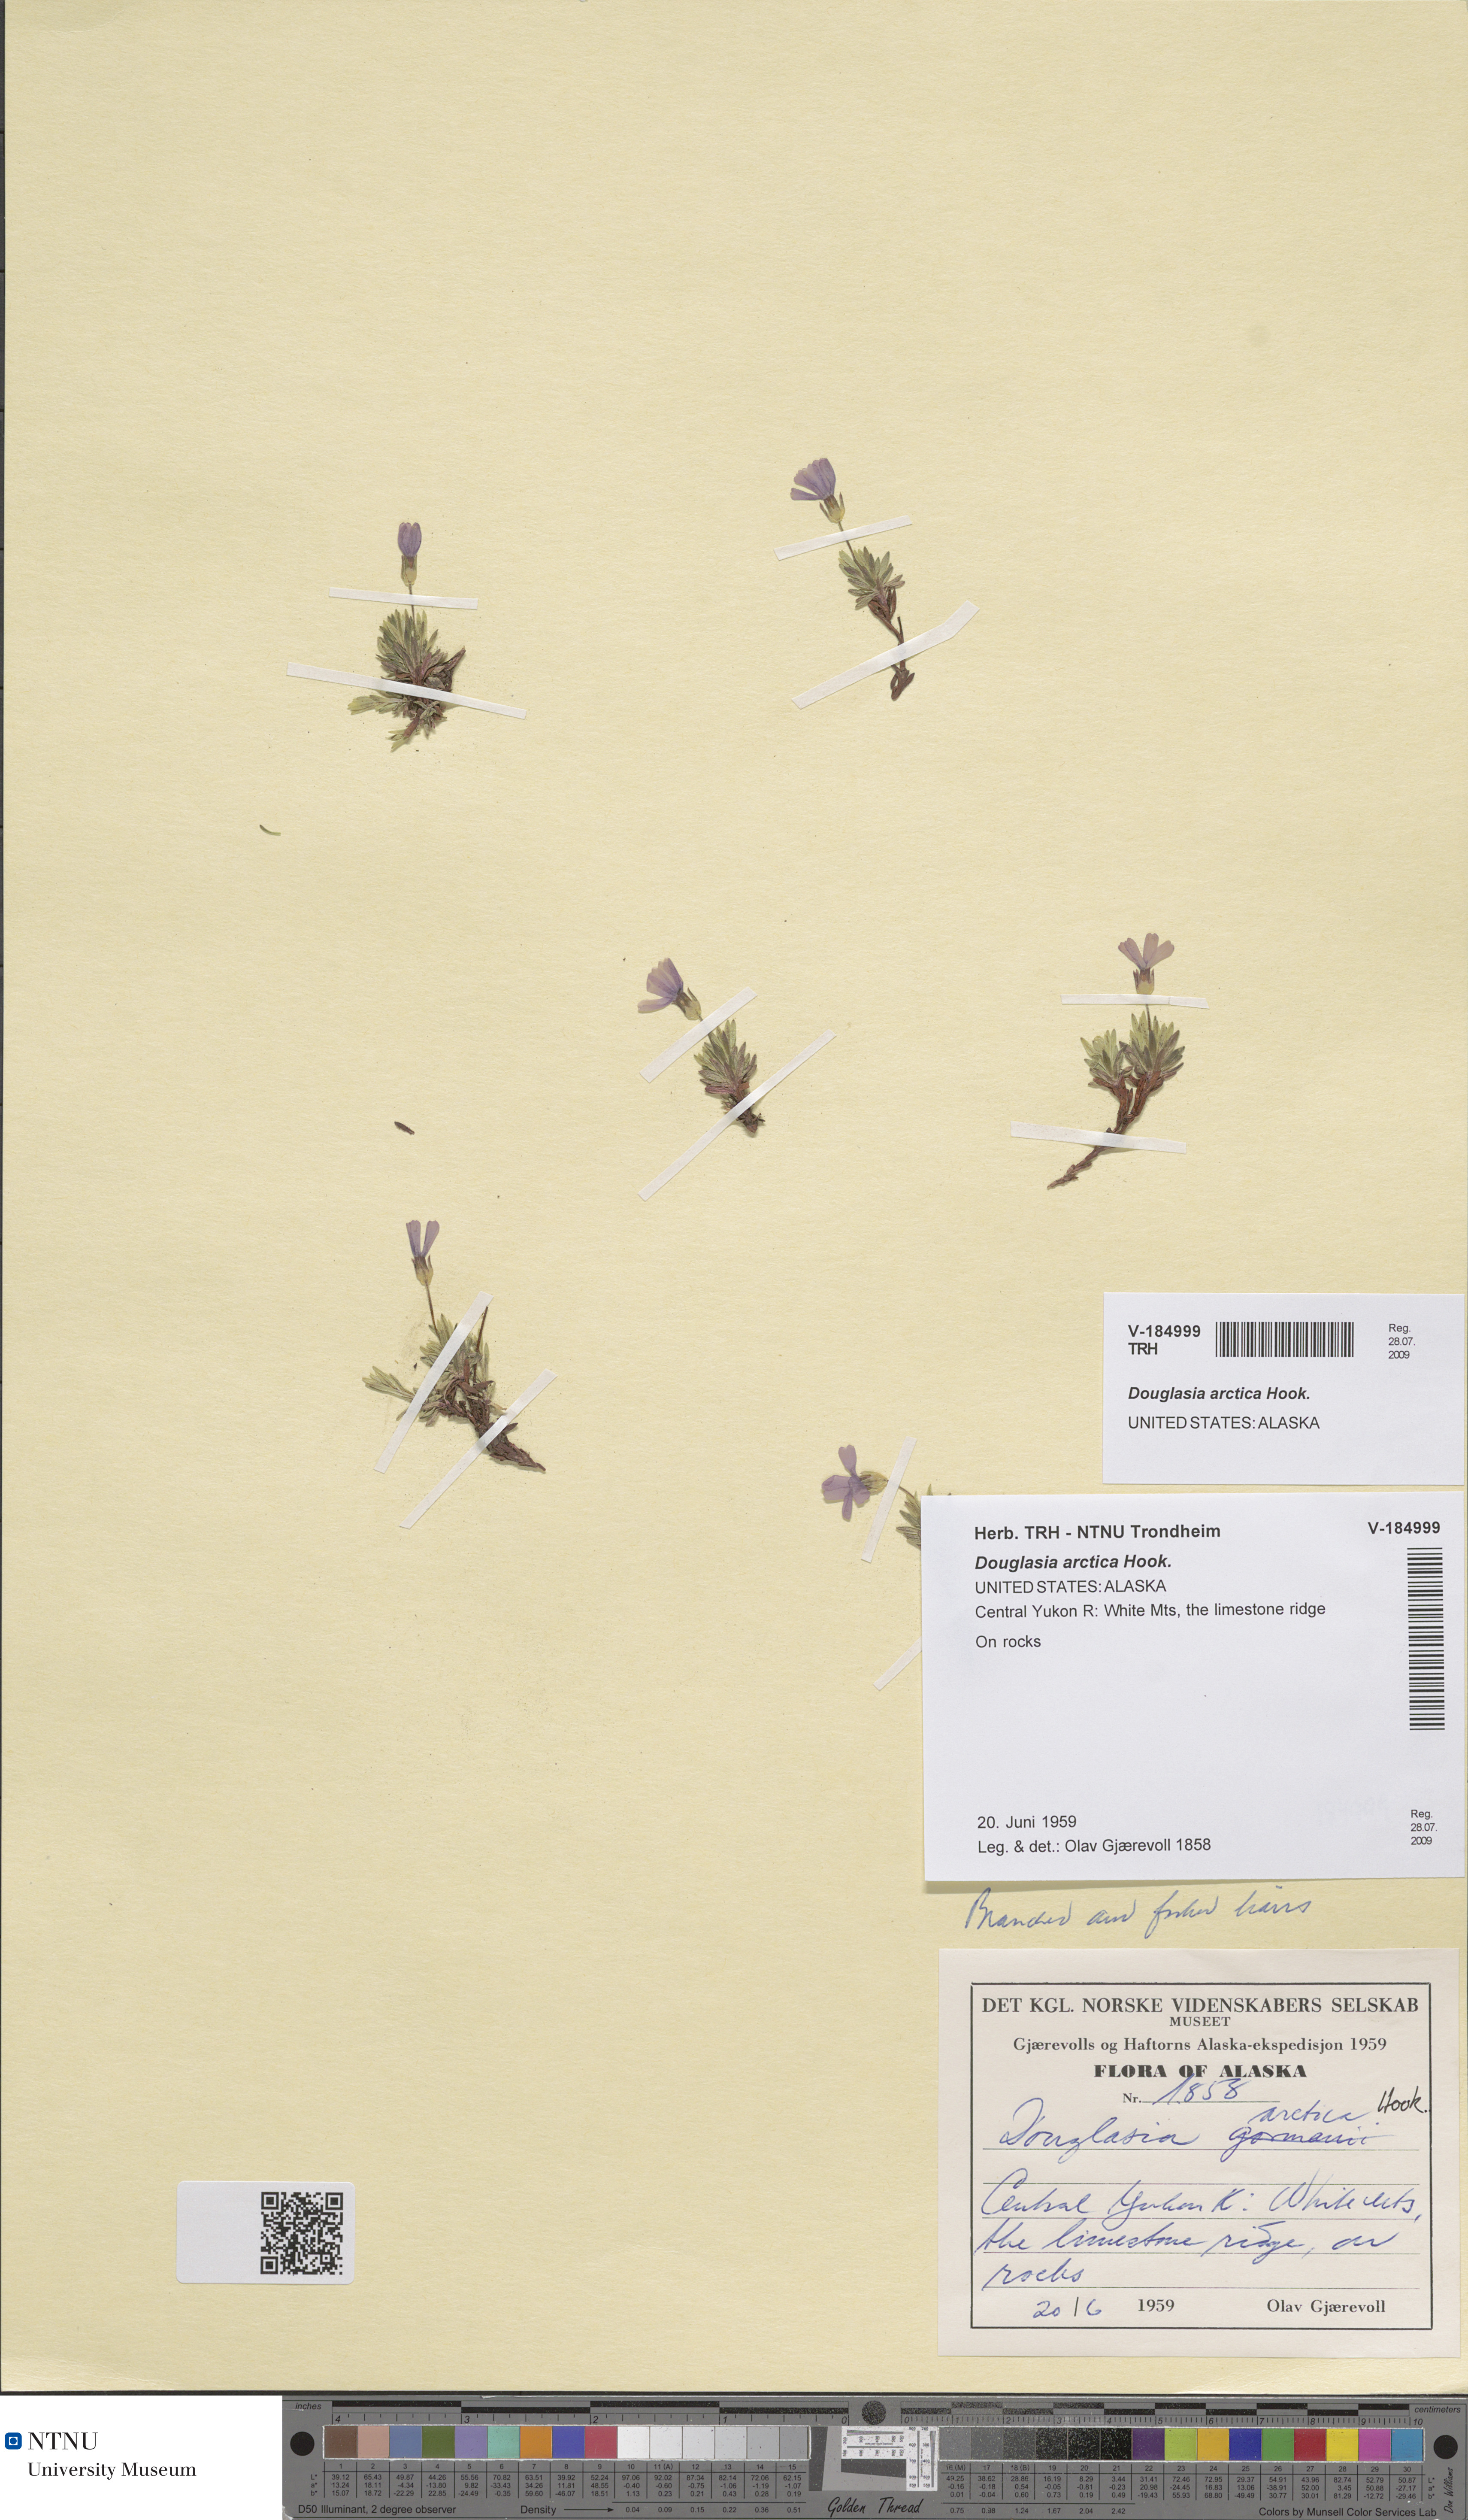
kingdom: Plantae
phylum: Tracheophyta
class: Magnoliopsida
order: Ericales
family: Primulaceae
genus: Androsace
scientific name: Androsace americana
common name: Mackenzie river dwarf-primrose
